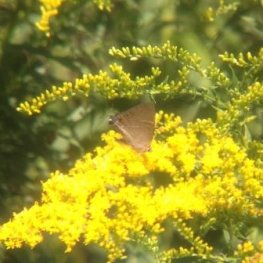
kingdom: Animalia
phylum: Arthropoda
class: Insecta
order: Lepidoptera
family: Lycaenidae
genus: Parrhasius
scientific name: Parrhasius m-album
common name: White-m Hairstreak
